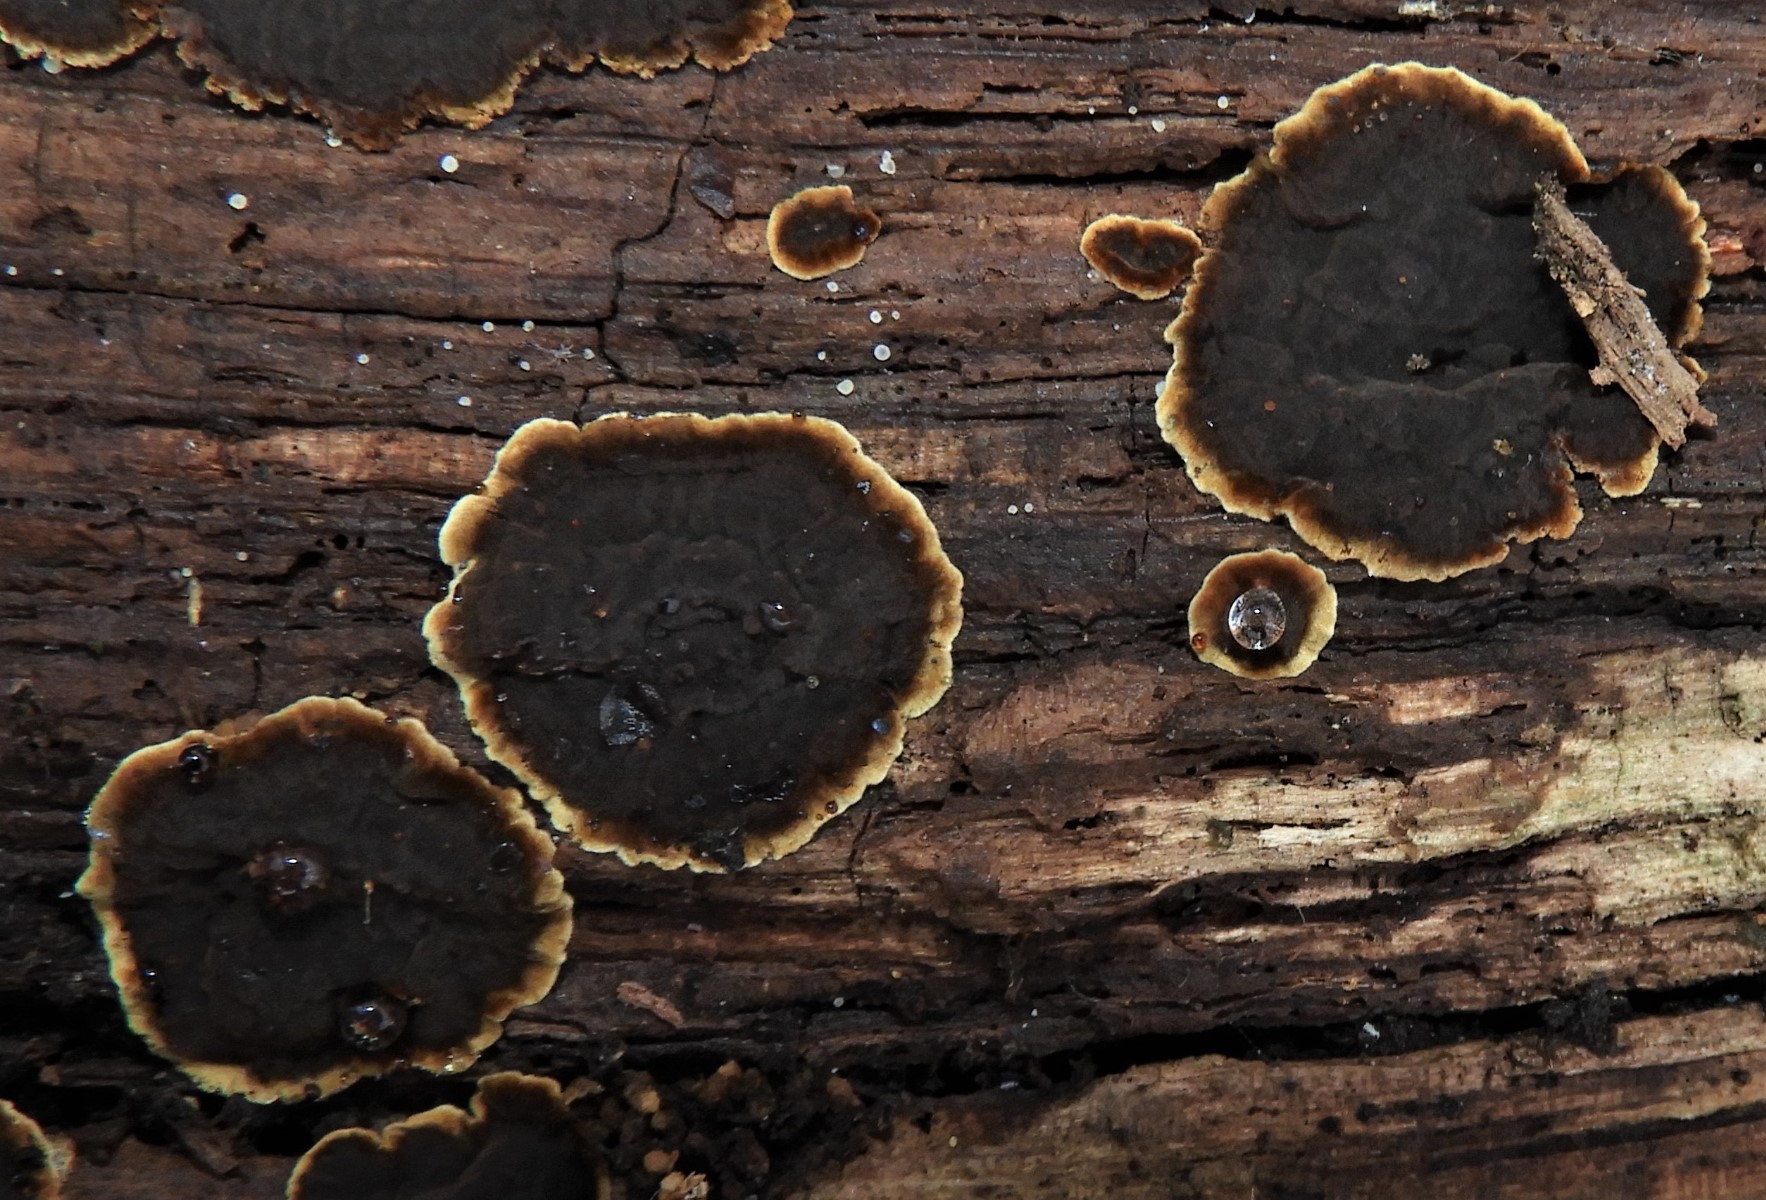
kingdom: Fungi
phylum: Basidiomycota
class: Agaricomycetes
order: Hymenochaetales
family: Hymenochaetaceae
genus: Hymenochaete
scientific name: Hymenochaete
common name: ruslædersvamp
